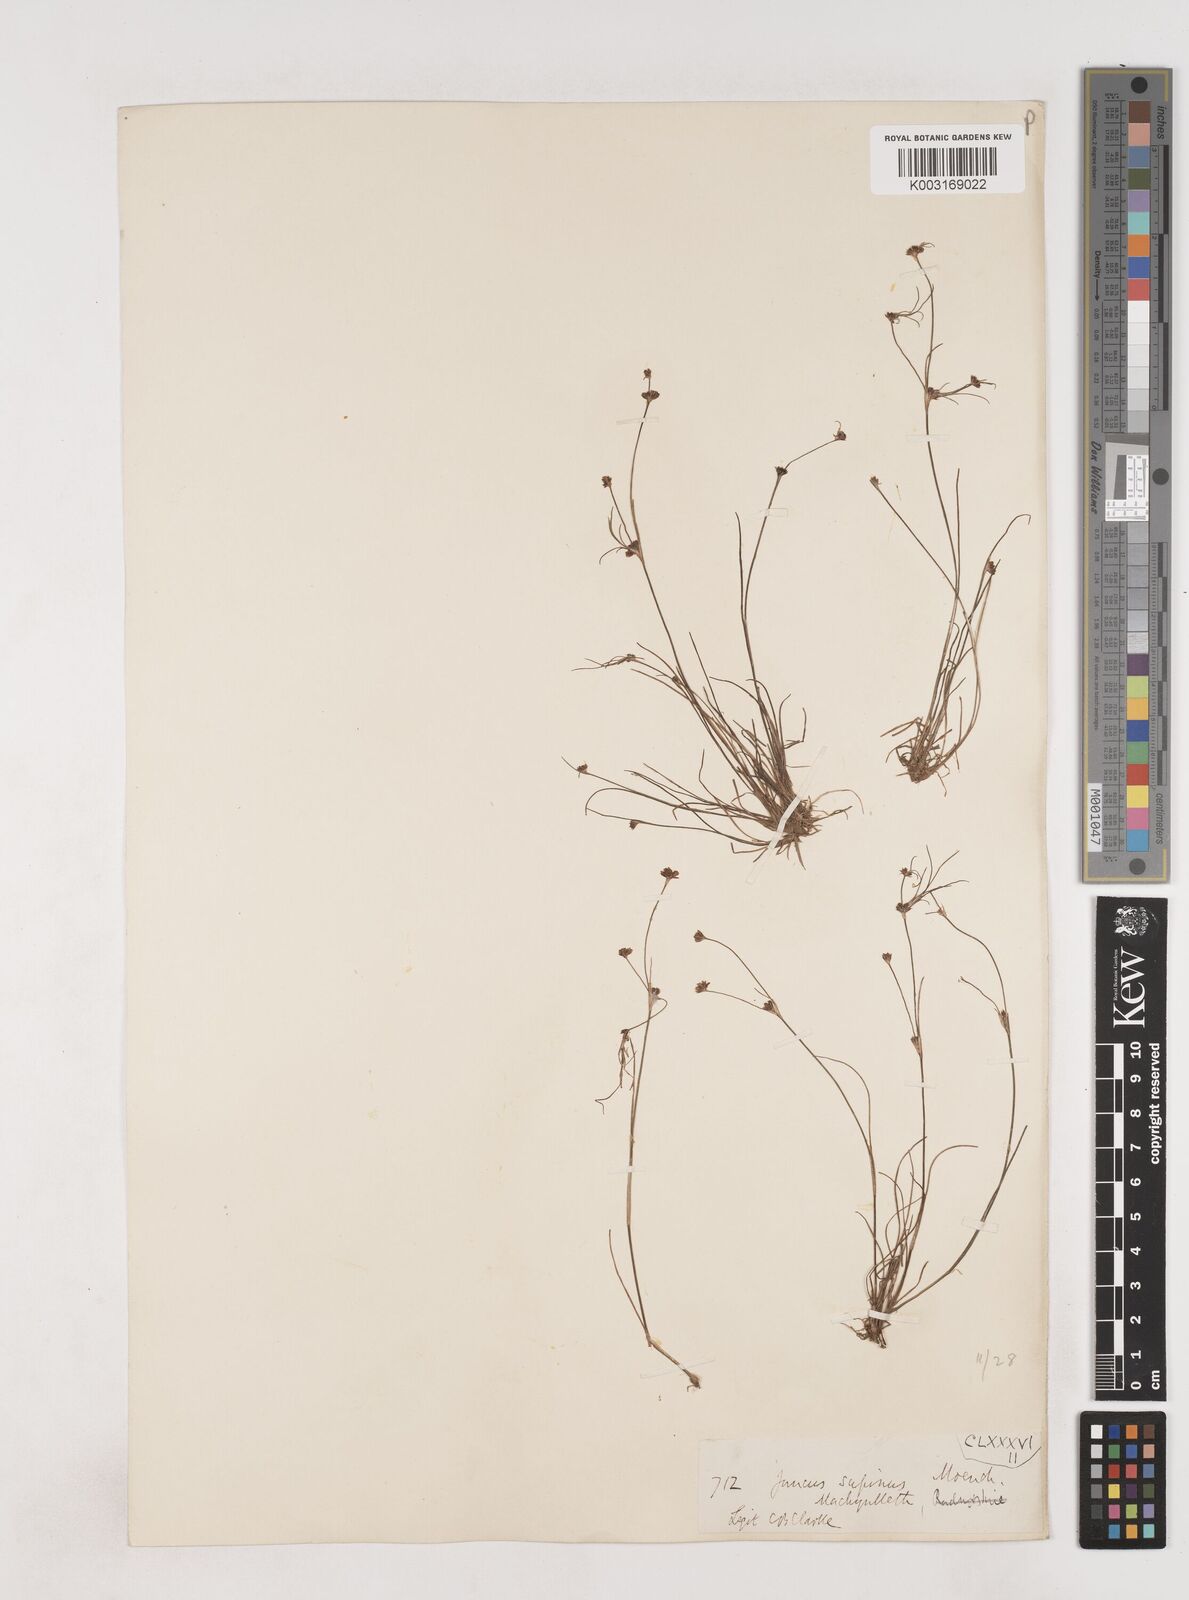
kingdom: Plantae
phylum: Tracheophyta
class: Liliopsida
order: Poales
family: Juncaceae
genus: Juncus
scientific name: Juncus bulbosus
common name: Bulbous rush
